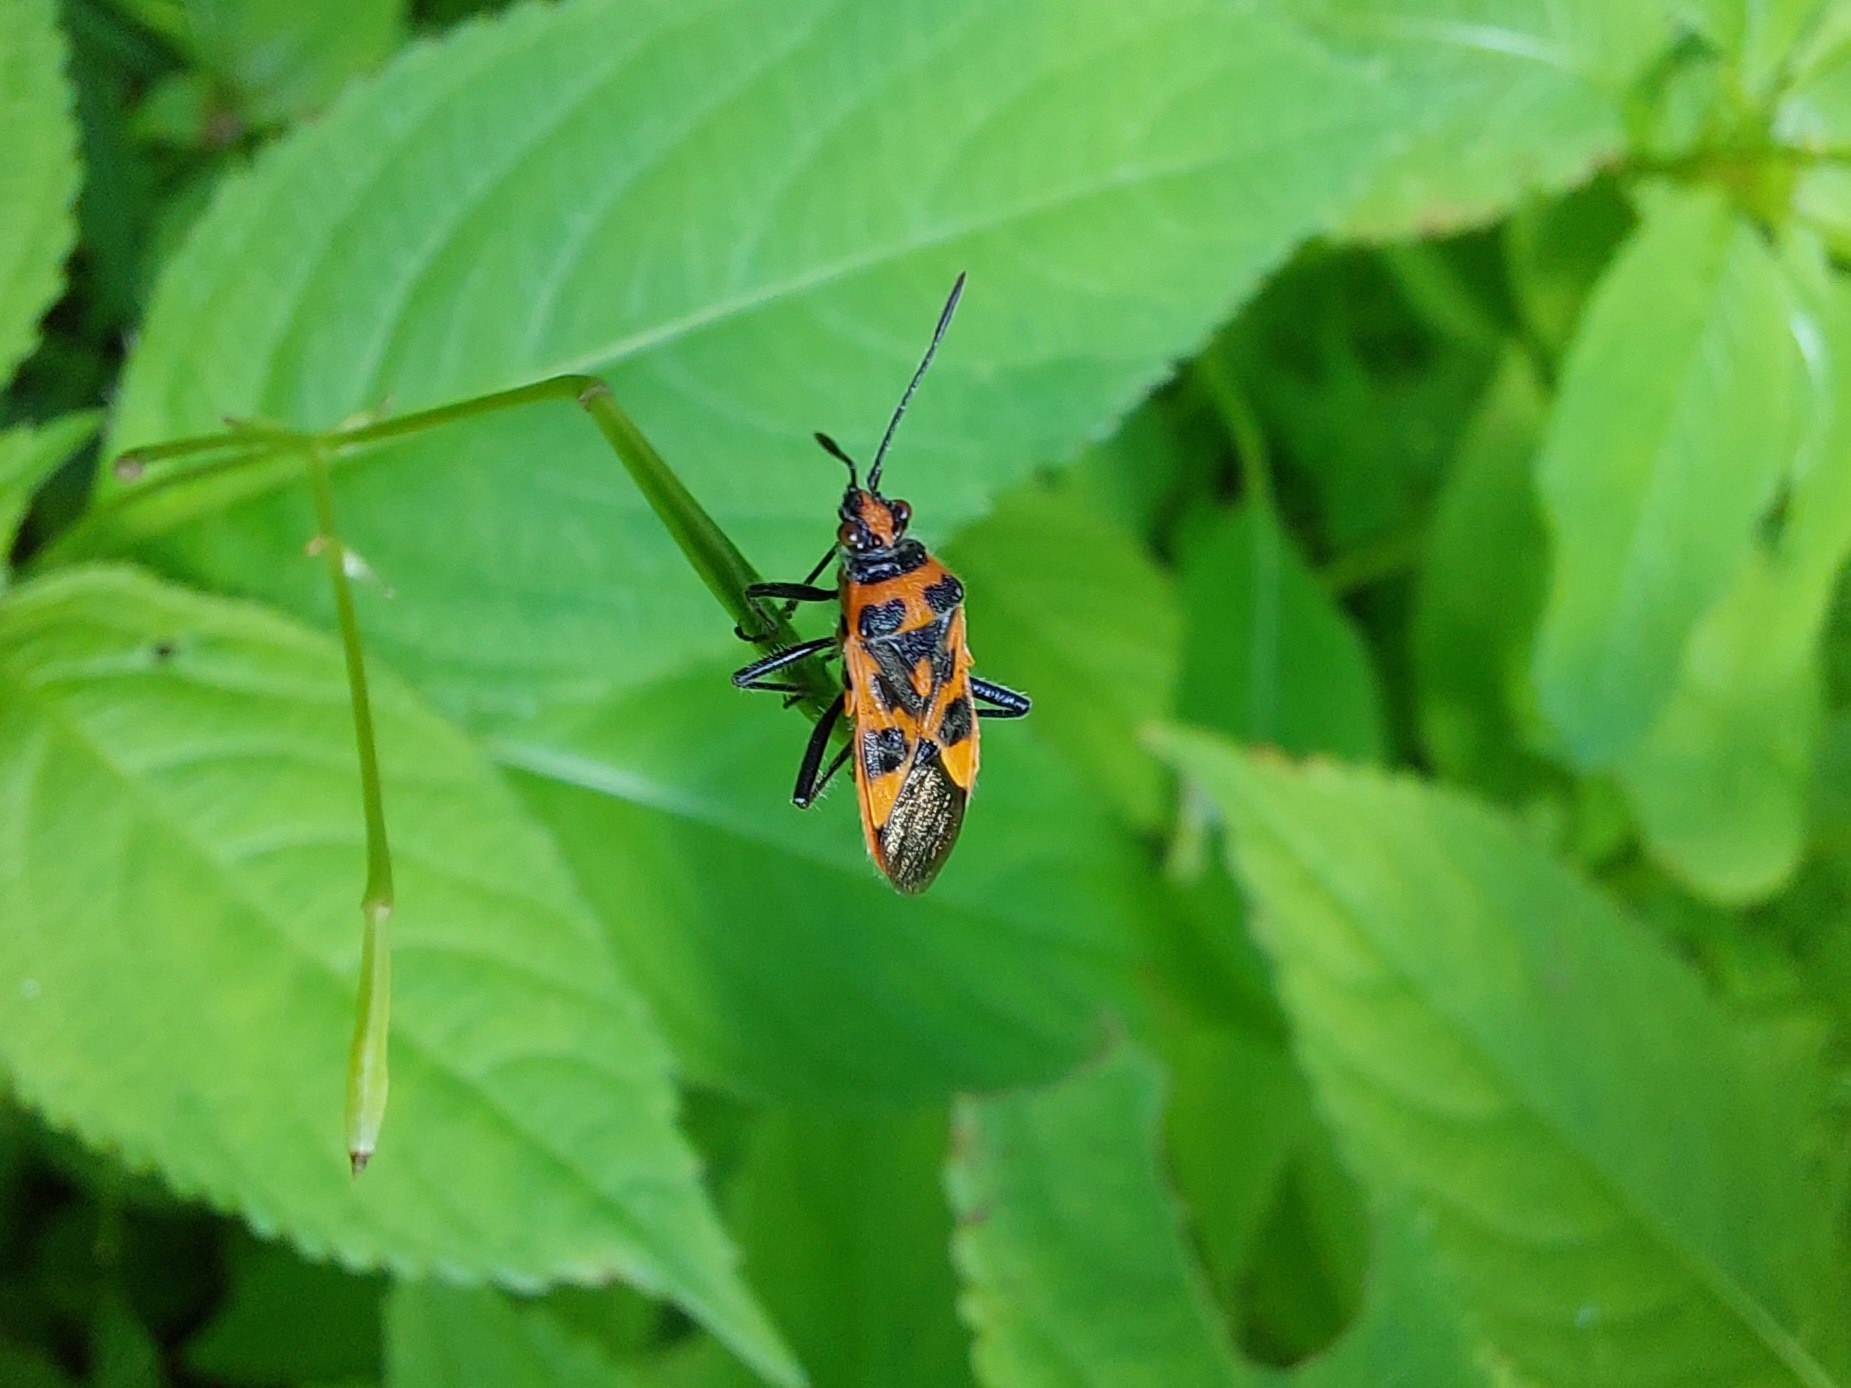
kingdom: Animalia
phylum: Arthropoda
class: Insecta
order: Hemiptera
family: Rhopalidae
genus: Corizus
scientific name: Corizus hyoscyami
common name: Rød kanttæge
